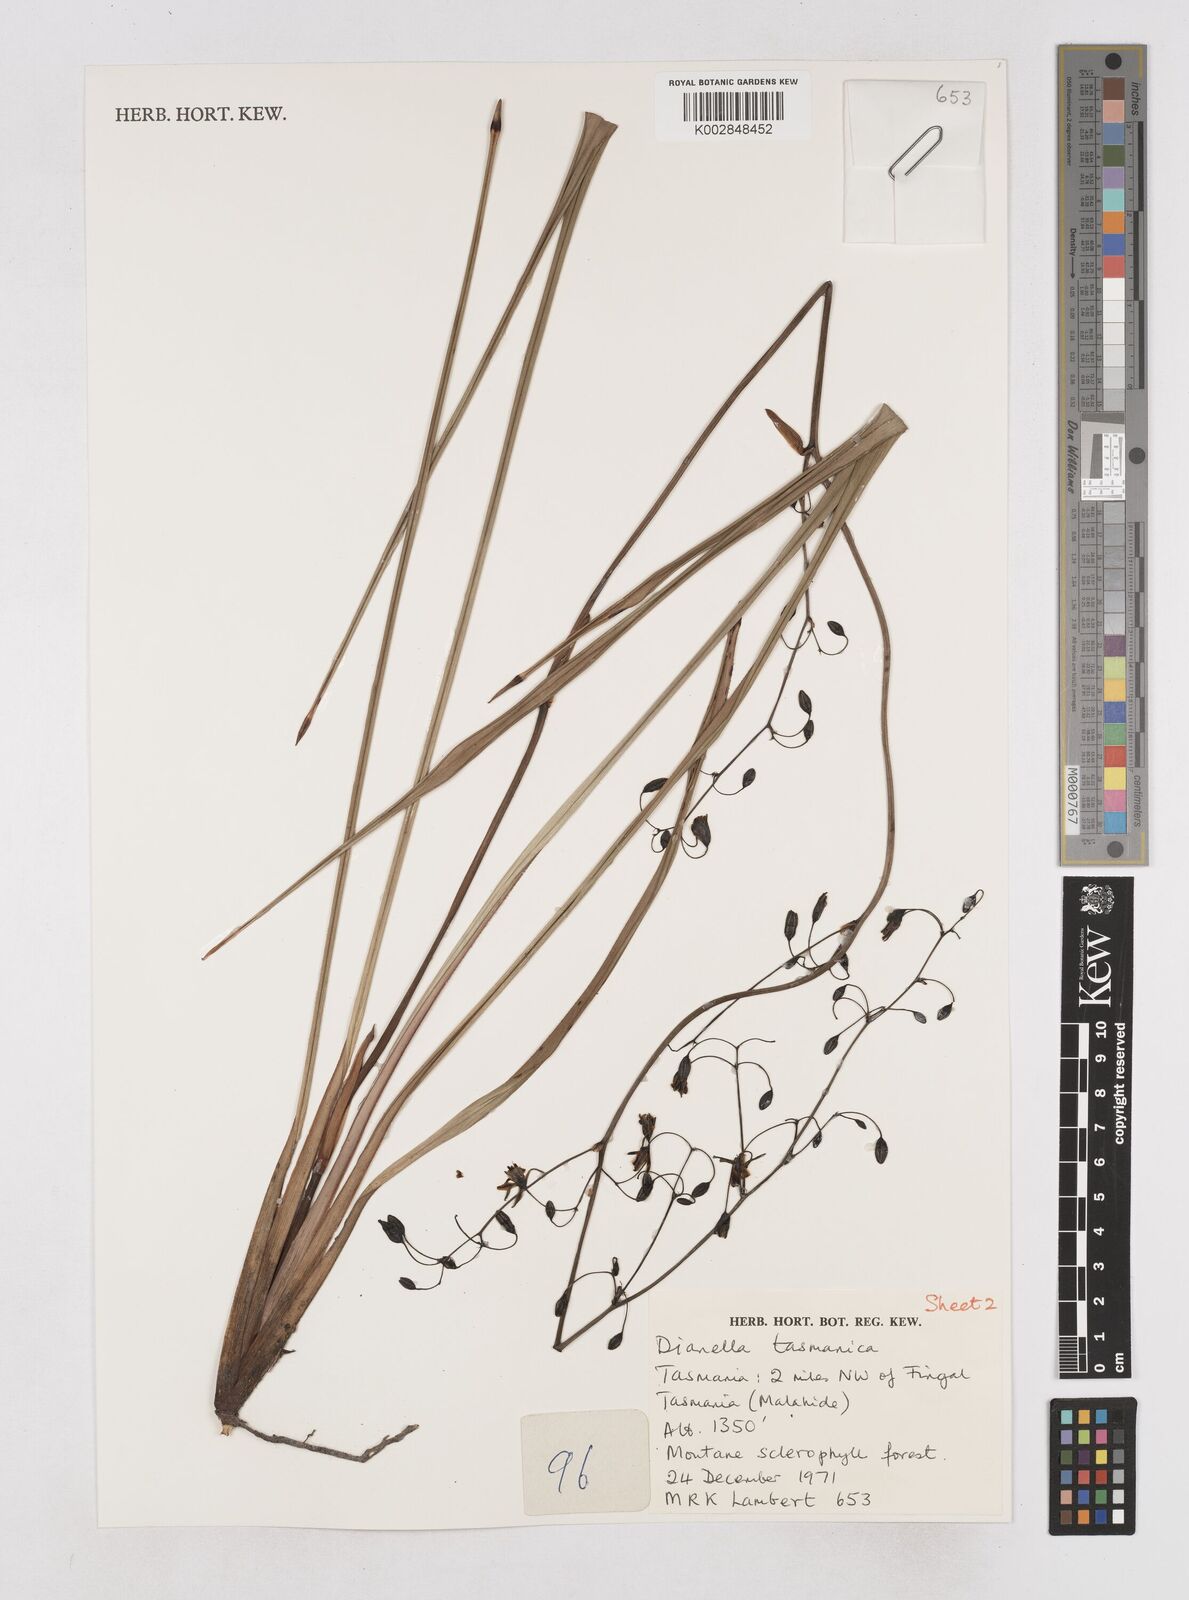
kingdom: Plantae
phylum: Tracheophyta
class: Liliopsida
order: Asparagales
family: Asphodelaceae
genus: Dianella
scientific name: Dianella tasmanica
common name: Tasman flax-lily
